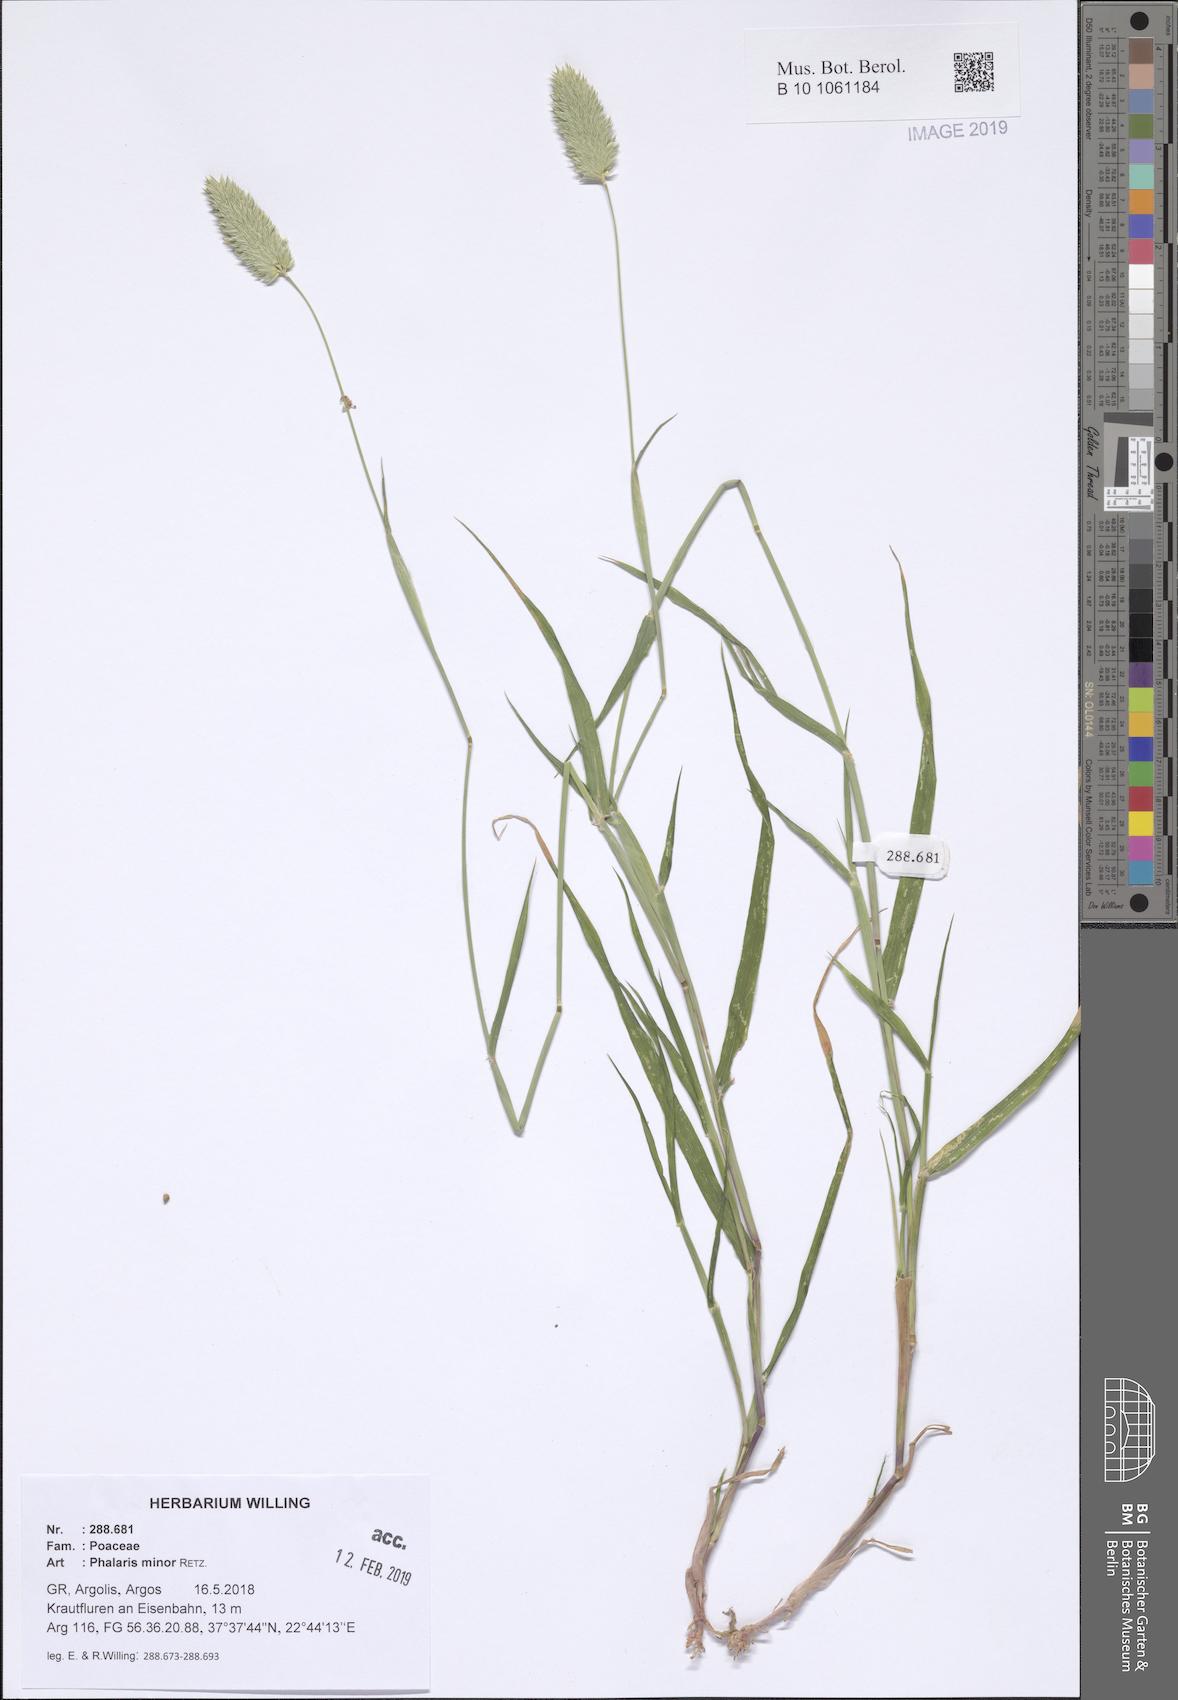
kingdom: Plantae
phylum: Tracheophyta
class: Liliopsida
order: Poales
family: Poaceae
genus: Phalaris
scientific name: Phalaris minor
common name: Littleseed canarygrass
